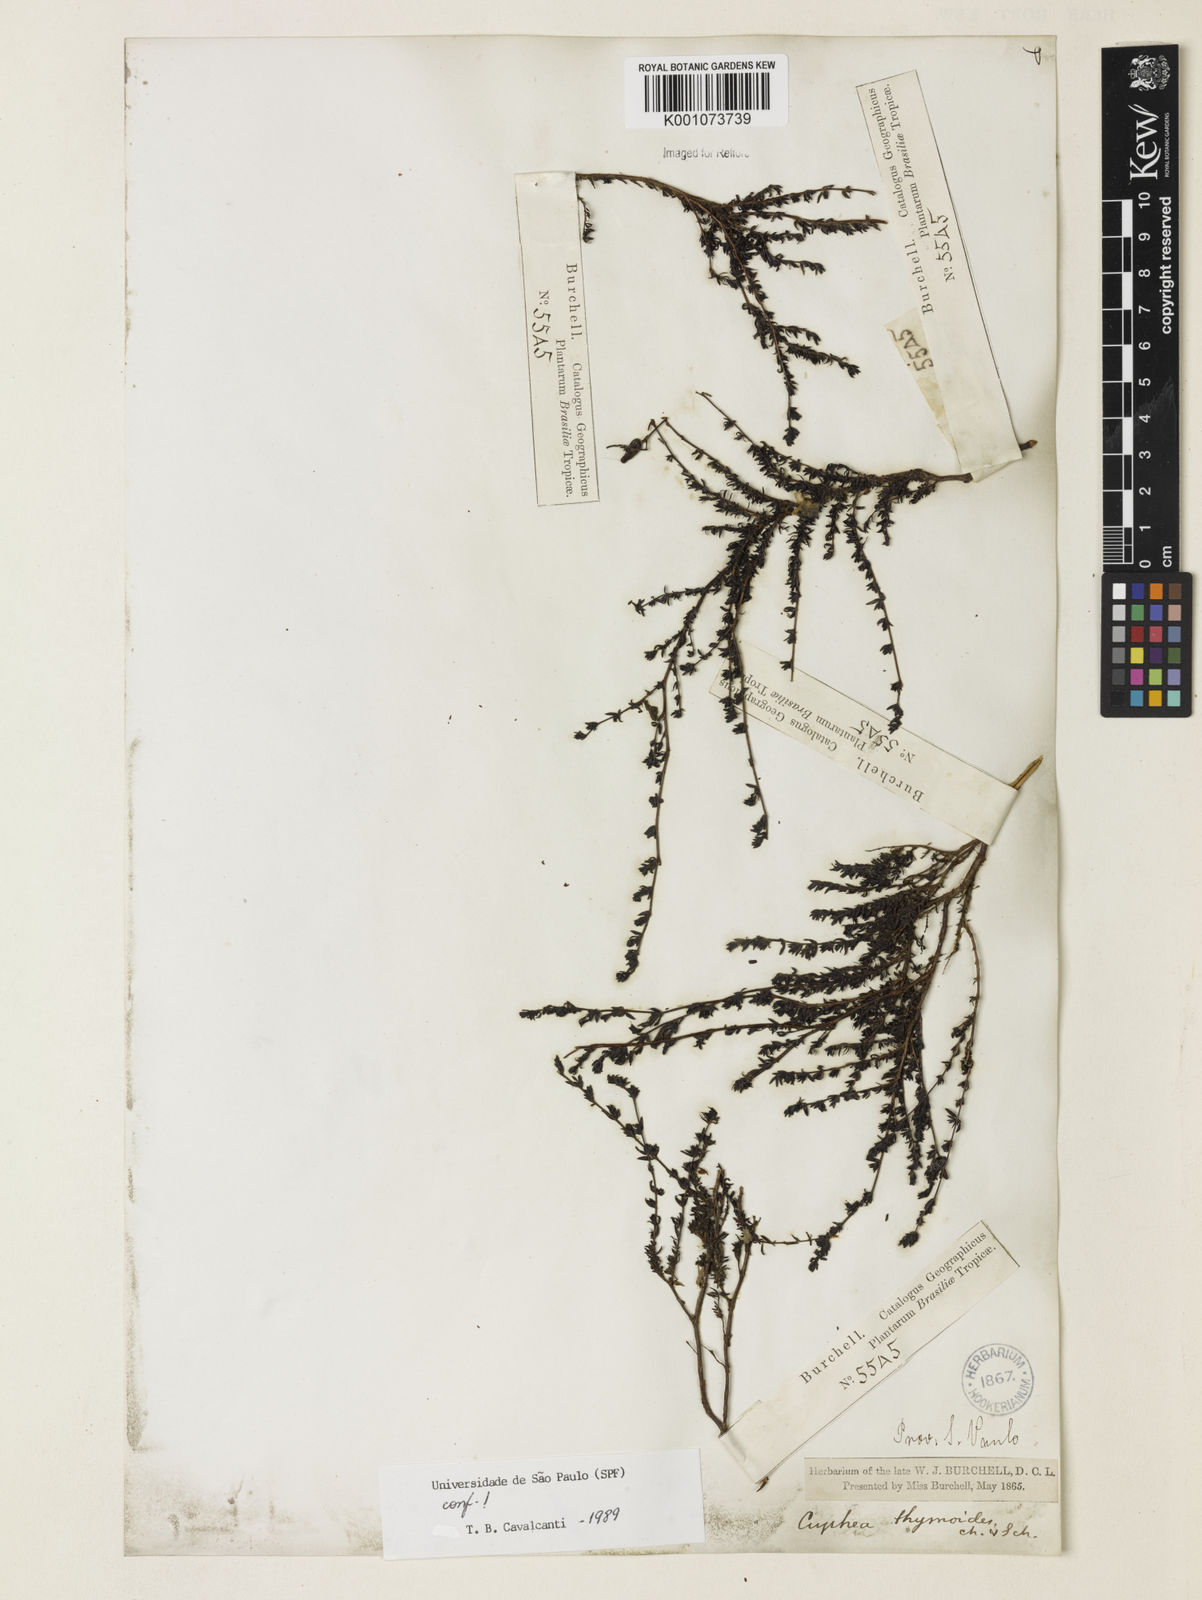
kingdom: Plantae
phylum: Tracheophyta
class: Magnoliopsida
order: Myrtales
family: Lythraceae
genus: Cuphea
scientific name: Cuphea thymoides
